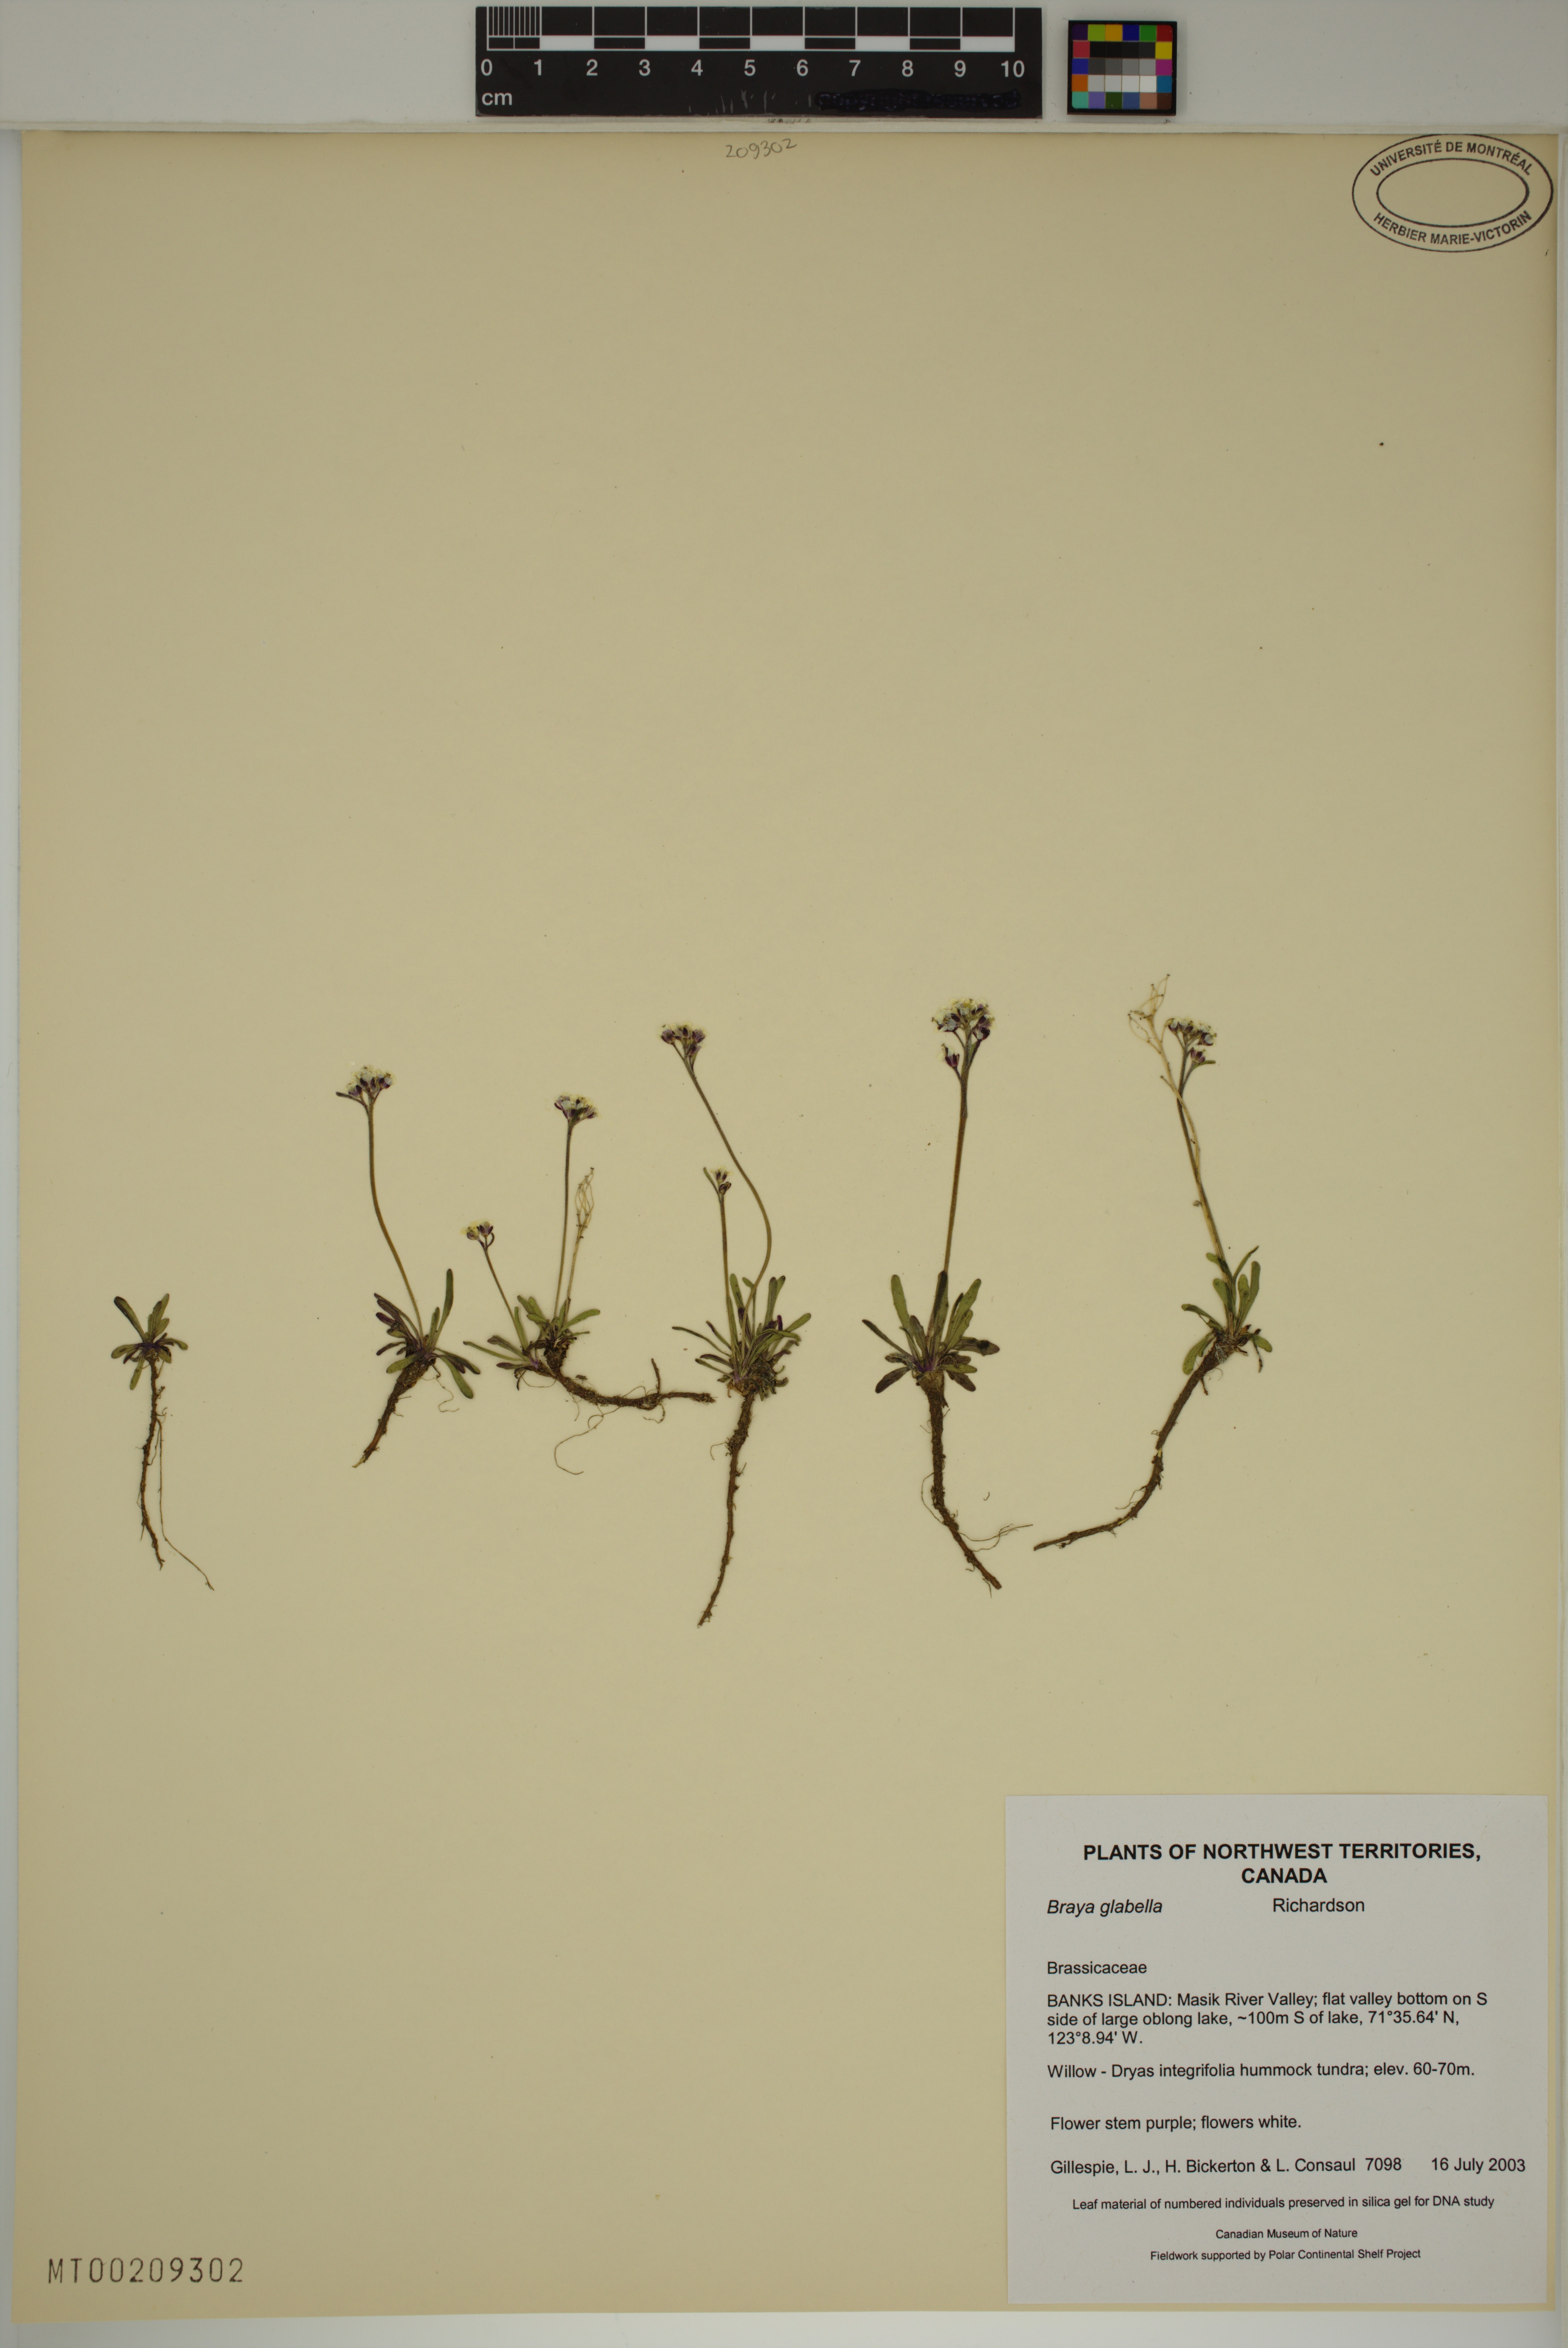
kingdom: Plantae
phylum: Tracheophyta
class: Magnoliopsida
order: Brassicales
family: Brassicaceae
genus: Braya
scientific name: Braya glabella
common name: Smooth braya
